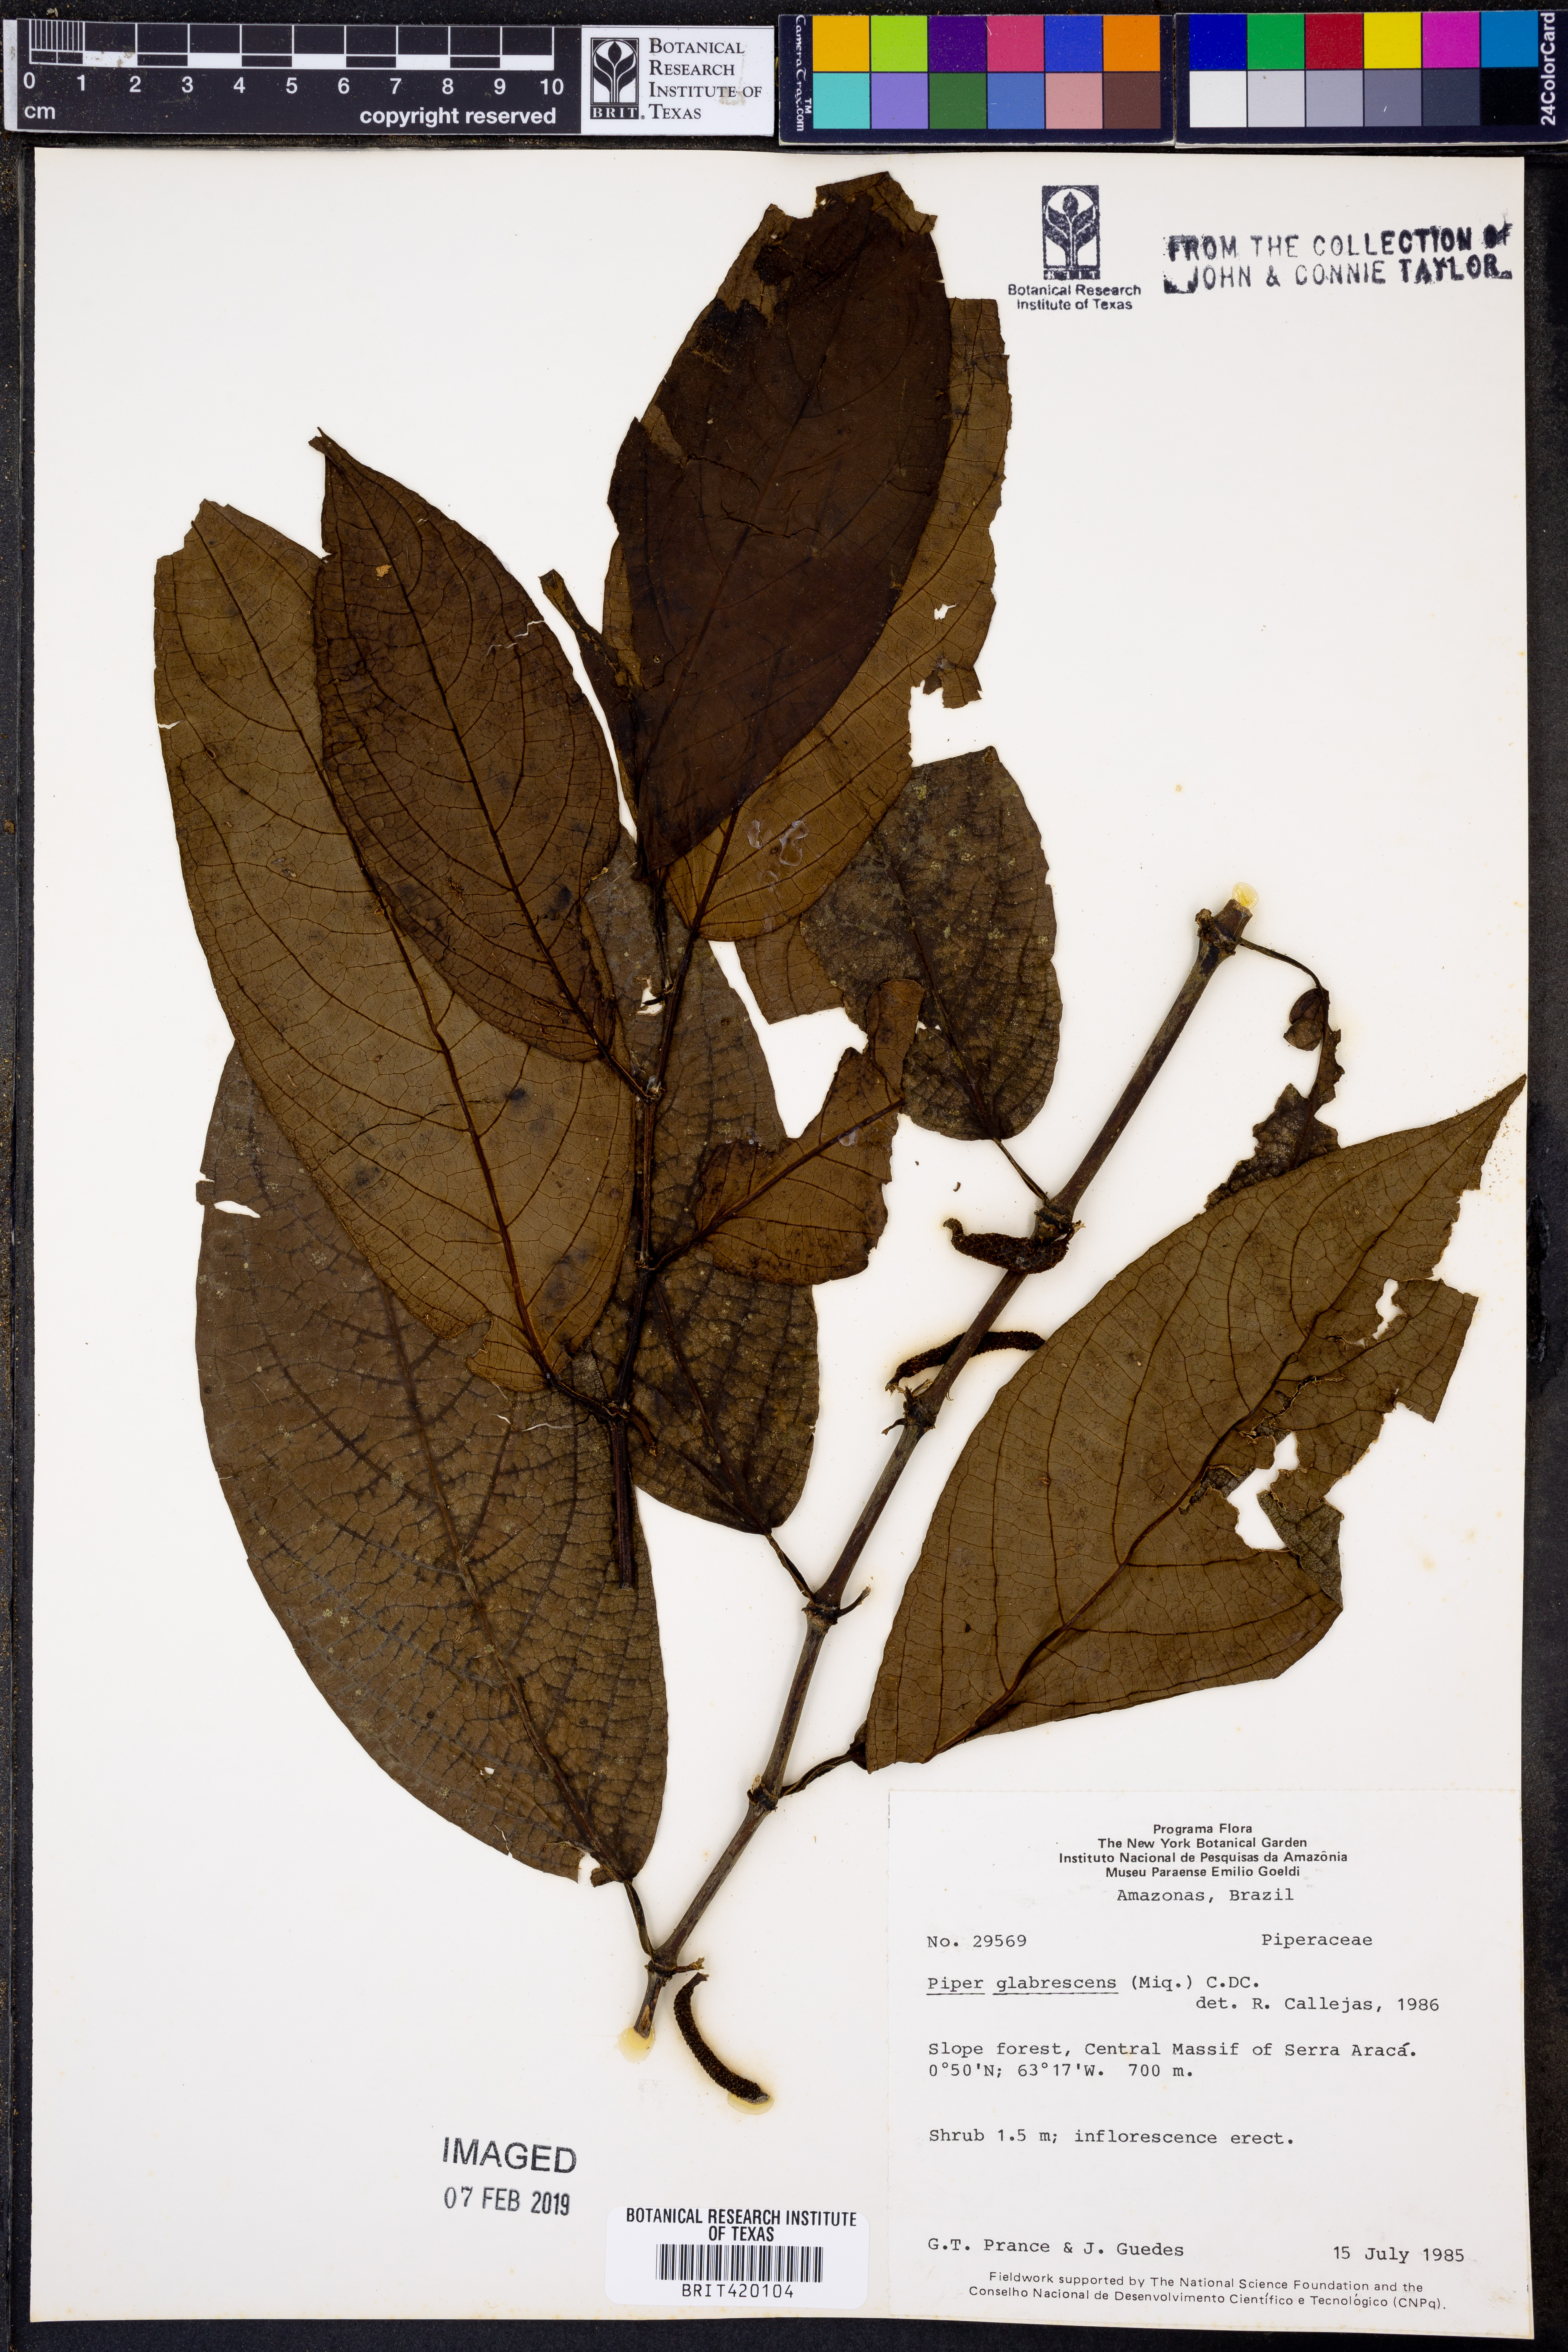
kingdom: Plantae
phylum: Tracheophyta
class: Magnoliopsida
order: Piperales
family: Piperaceae
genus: Piper
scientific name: Piper glabrescens
